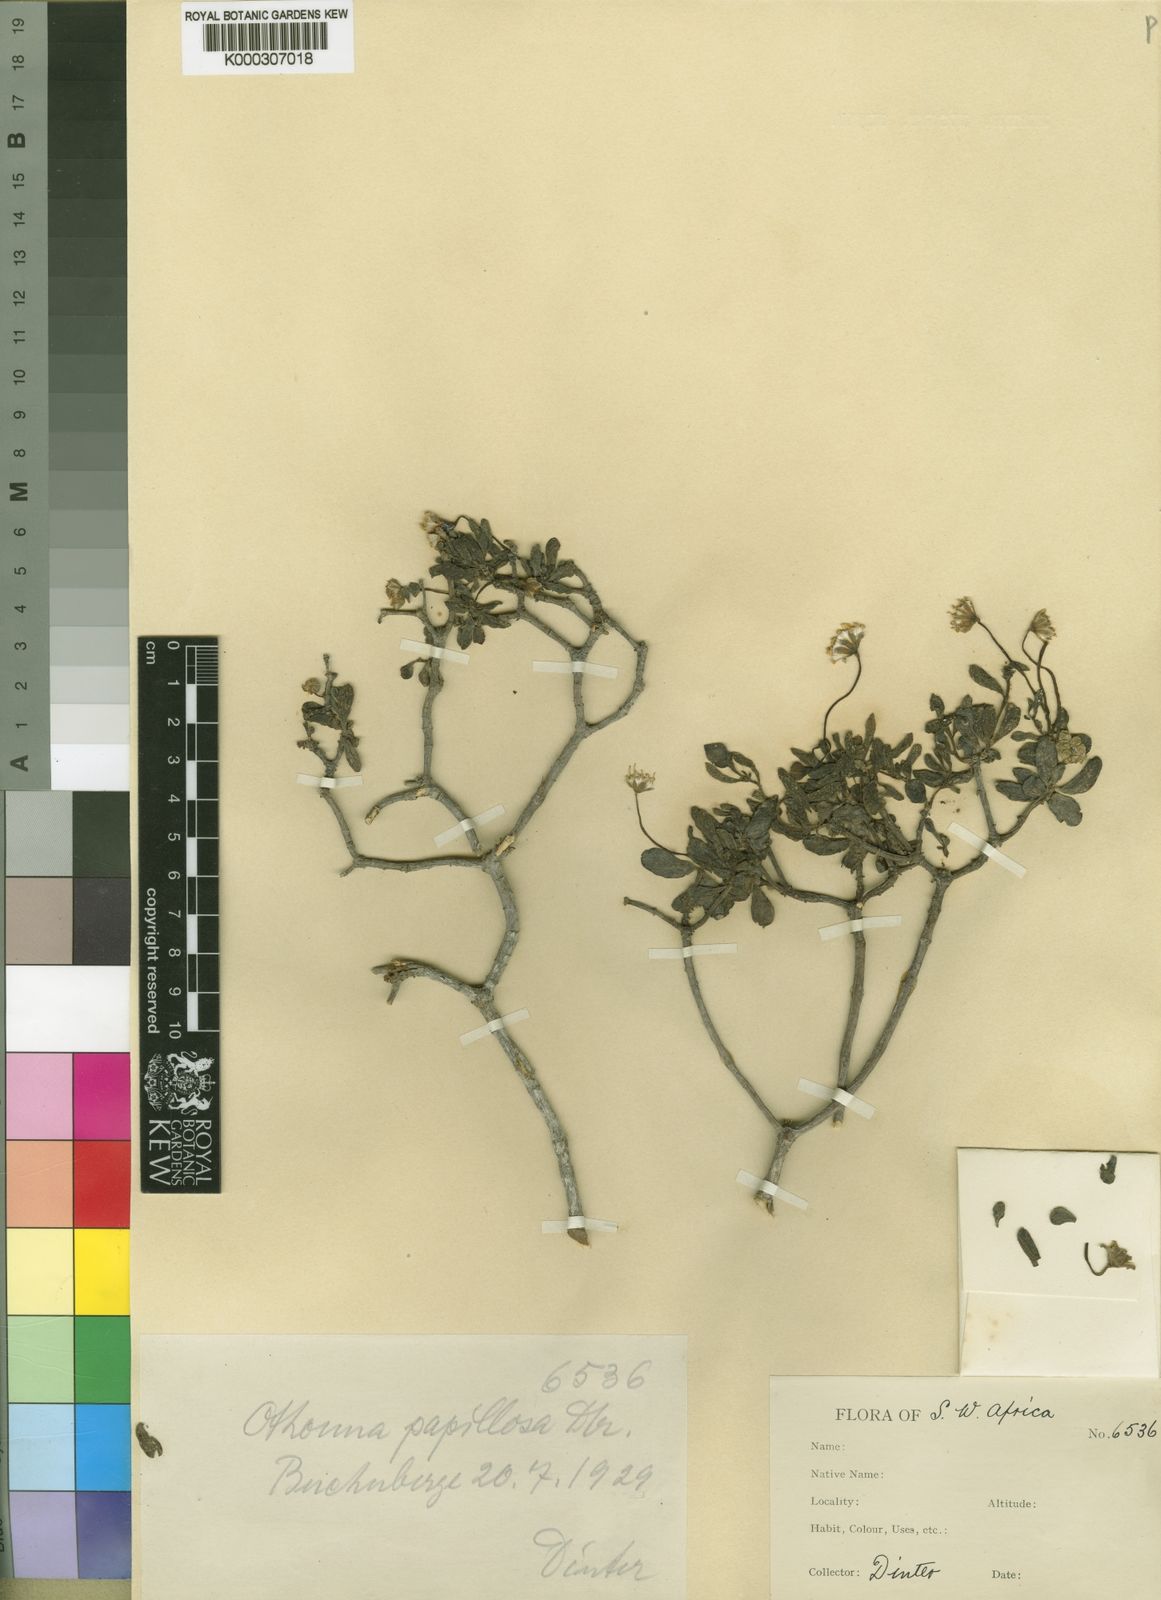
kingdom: Plantae
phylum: Tracheophyta
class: Magnoliopsida
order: Asterales
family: Asteraceae
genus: Crassothonna
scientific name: Crassothonna sedifolia
